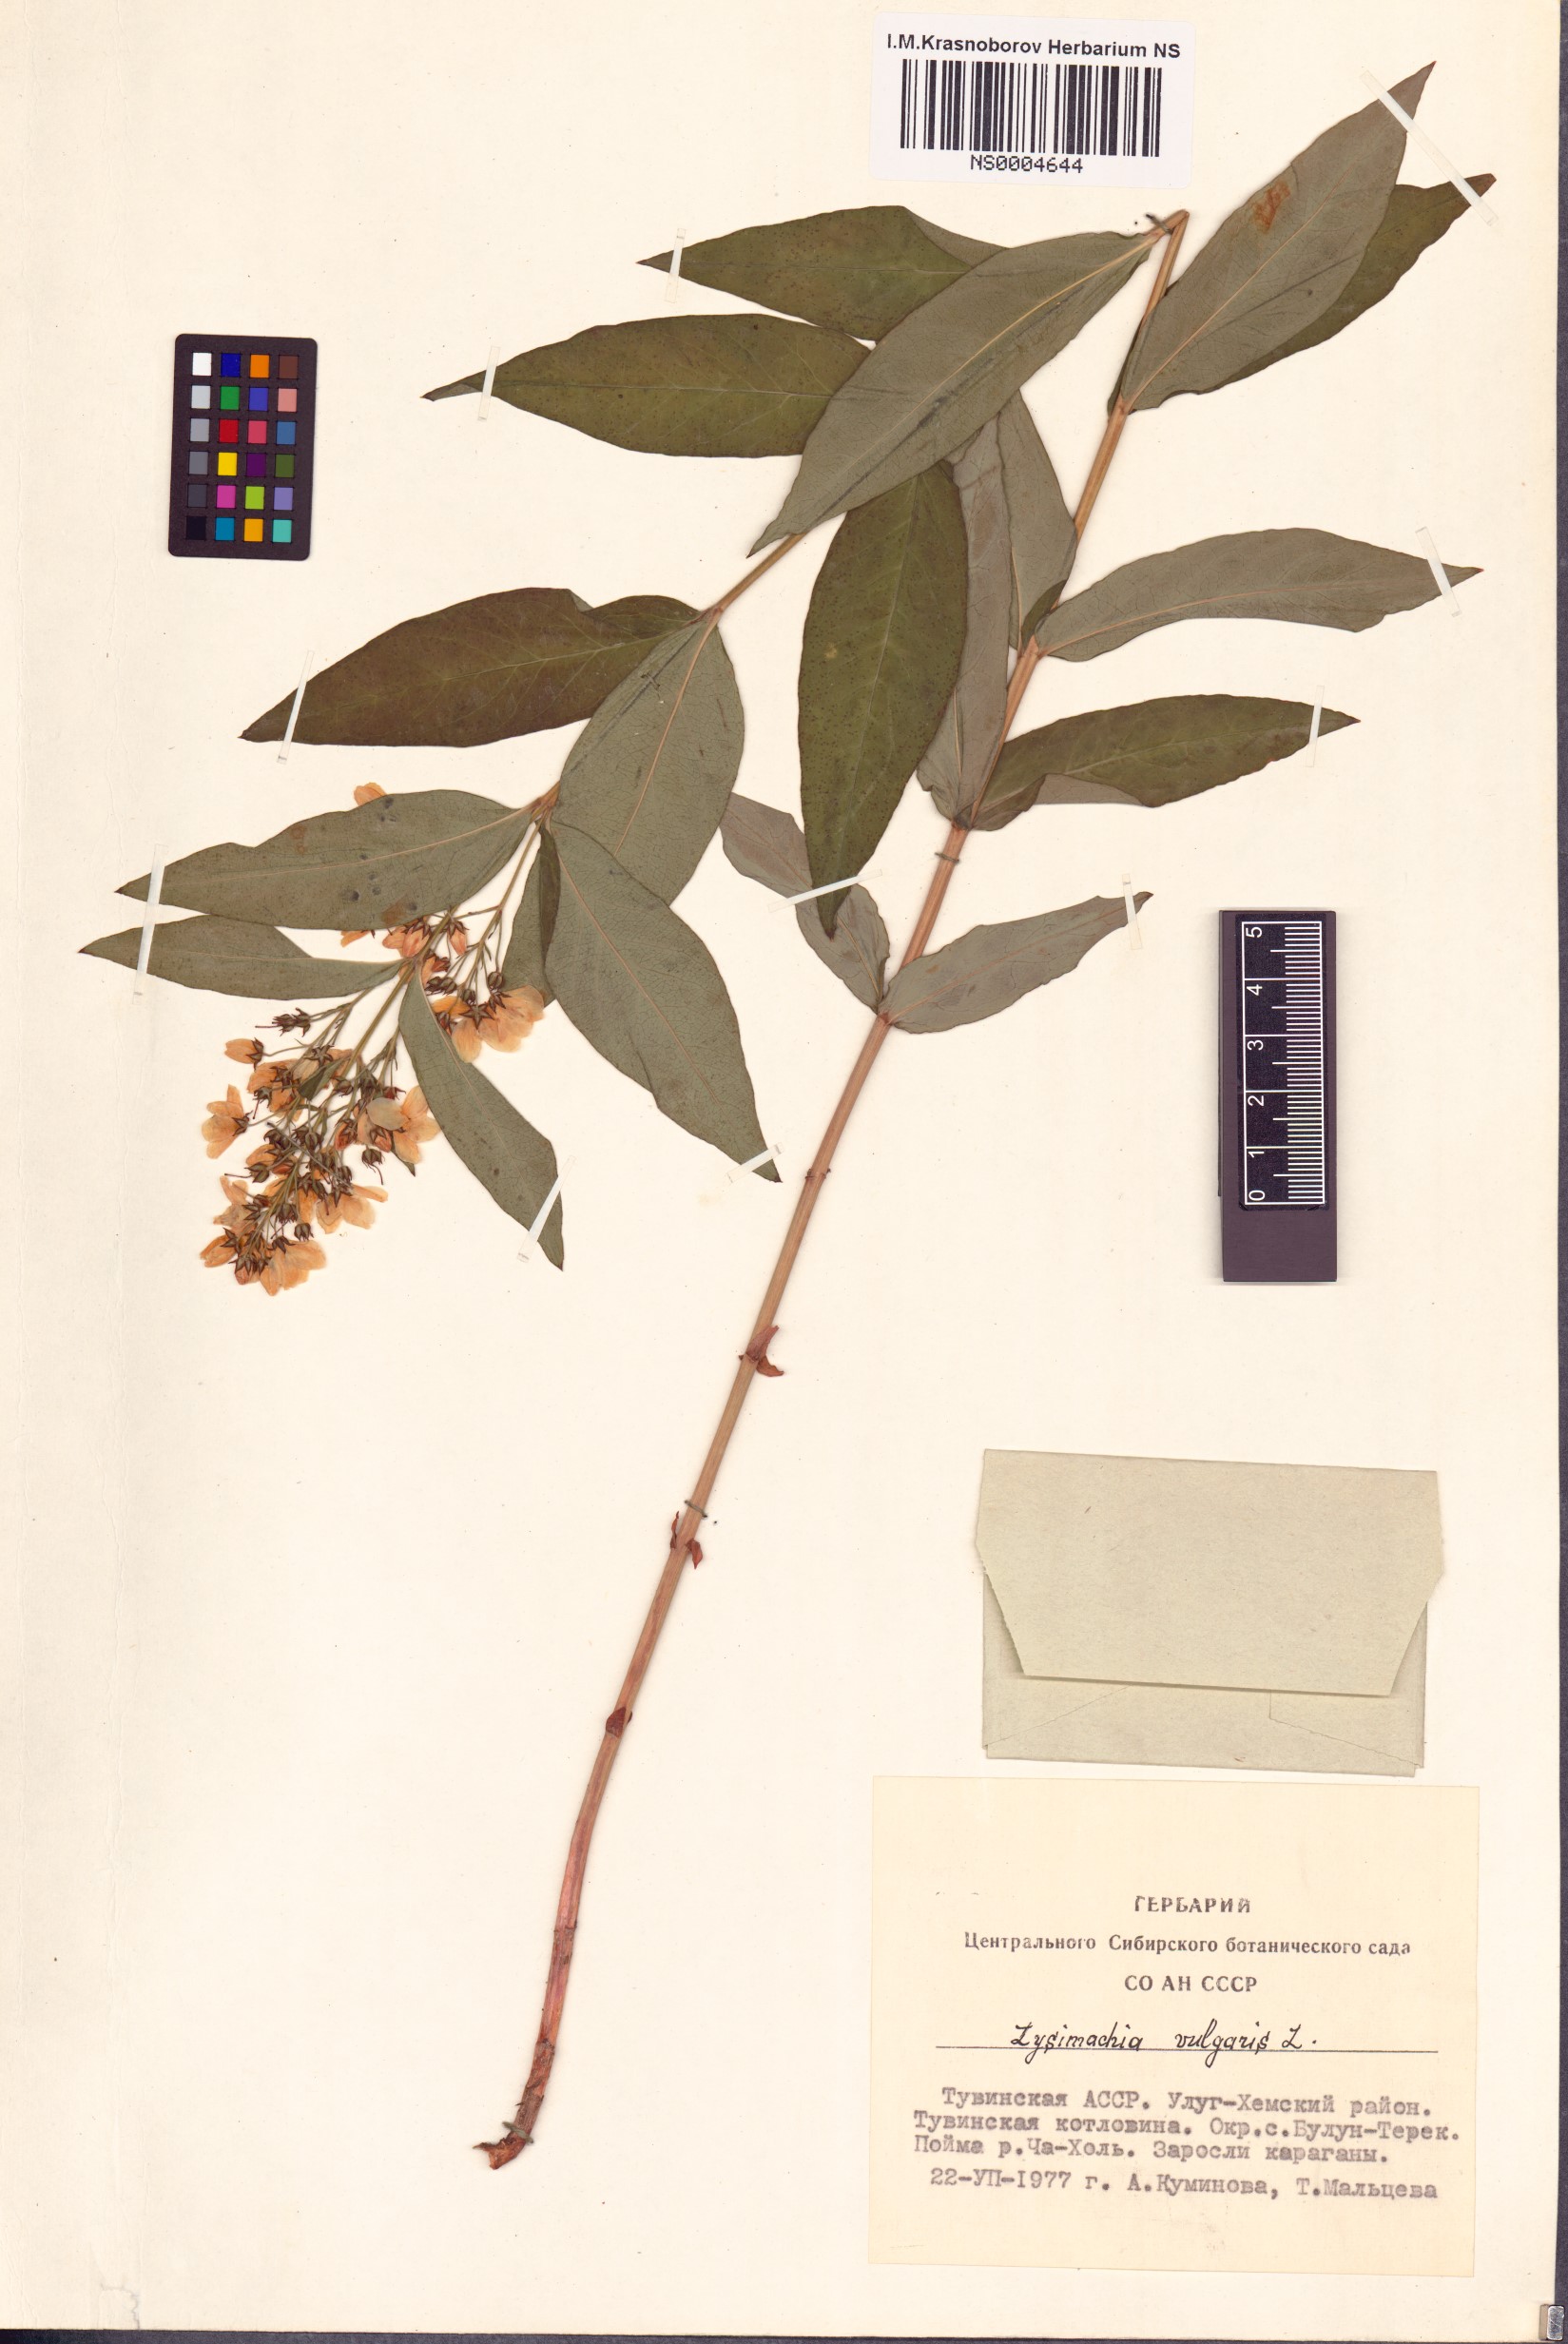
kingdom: Plantae
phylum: Tracheophyta
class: Magnoliopsida
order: Ericales
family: Primulaceae
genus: Lysimachia
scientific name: Lysimachia vulgaris
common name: Yellow loosestrife
